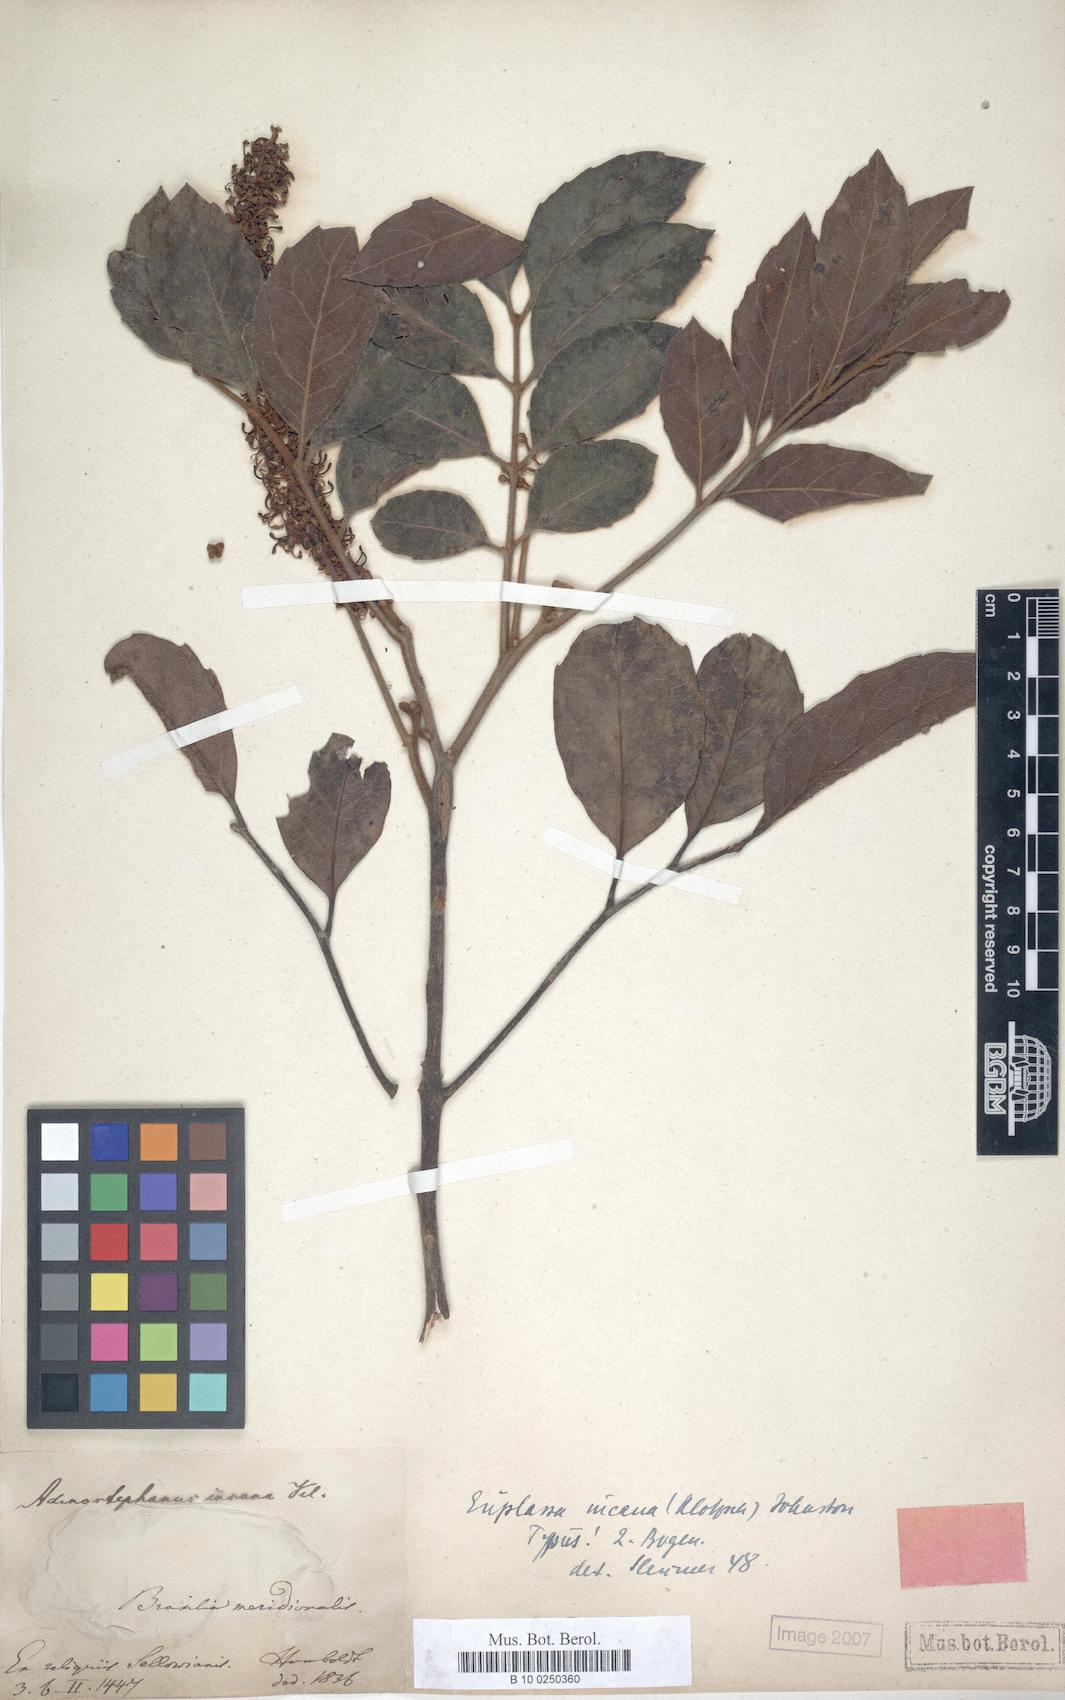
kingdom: Plantae
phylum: Tracheophyta
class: Magnoliopsida
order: Proteales
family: Proteaceae
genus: Euplassa
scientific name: Euplassa incana
